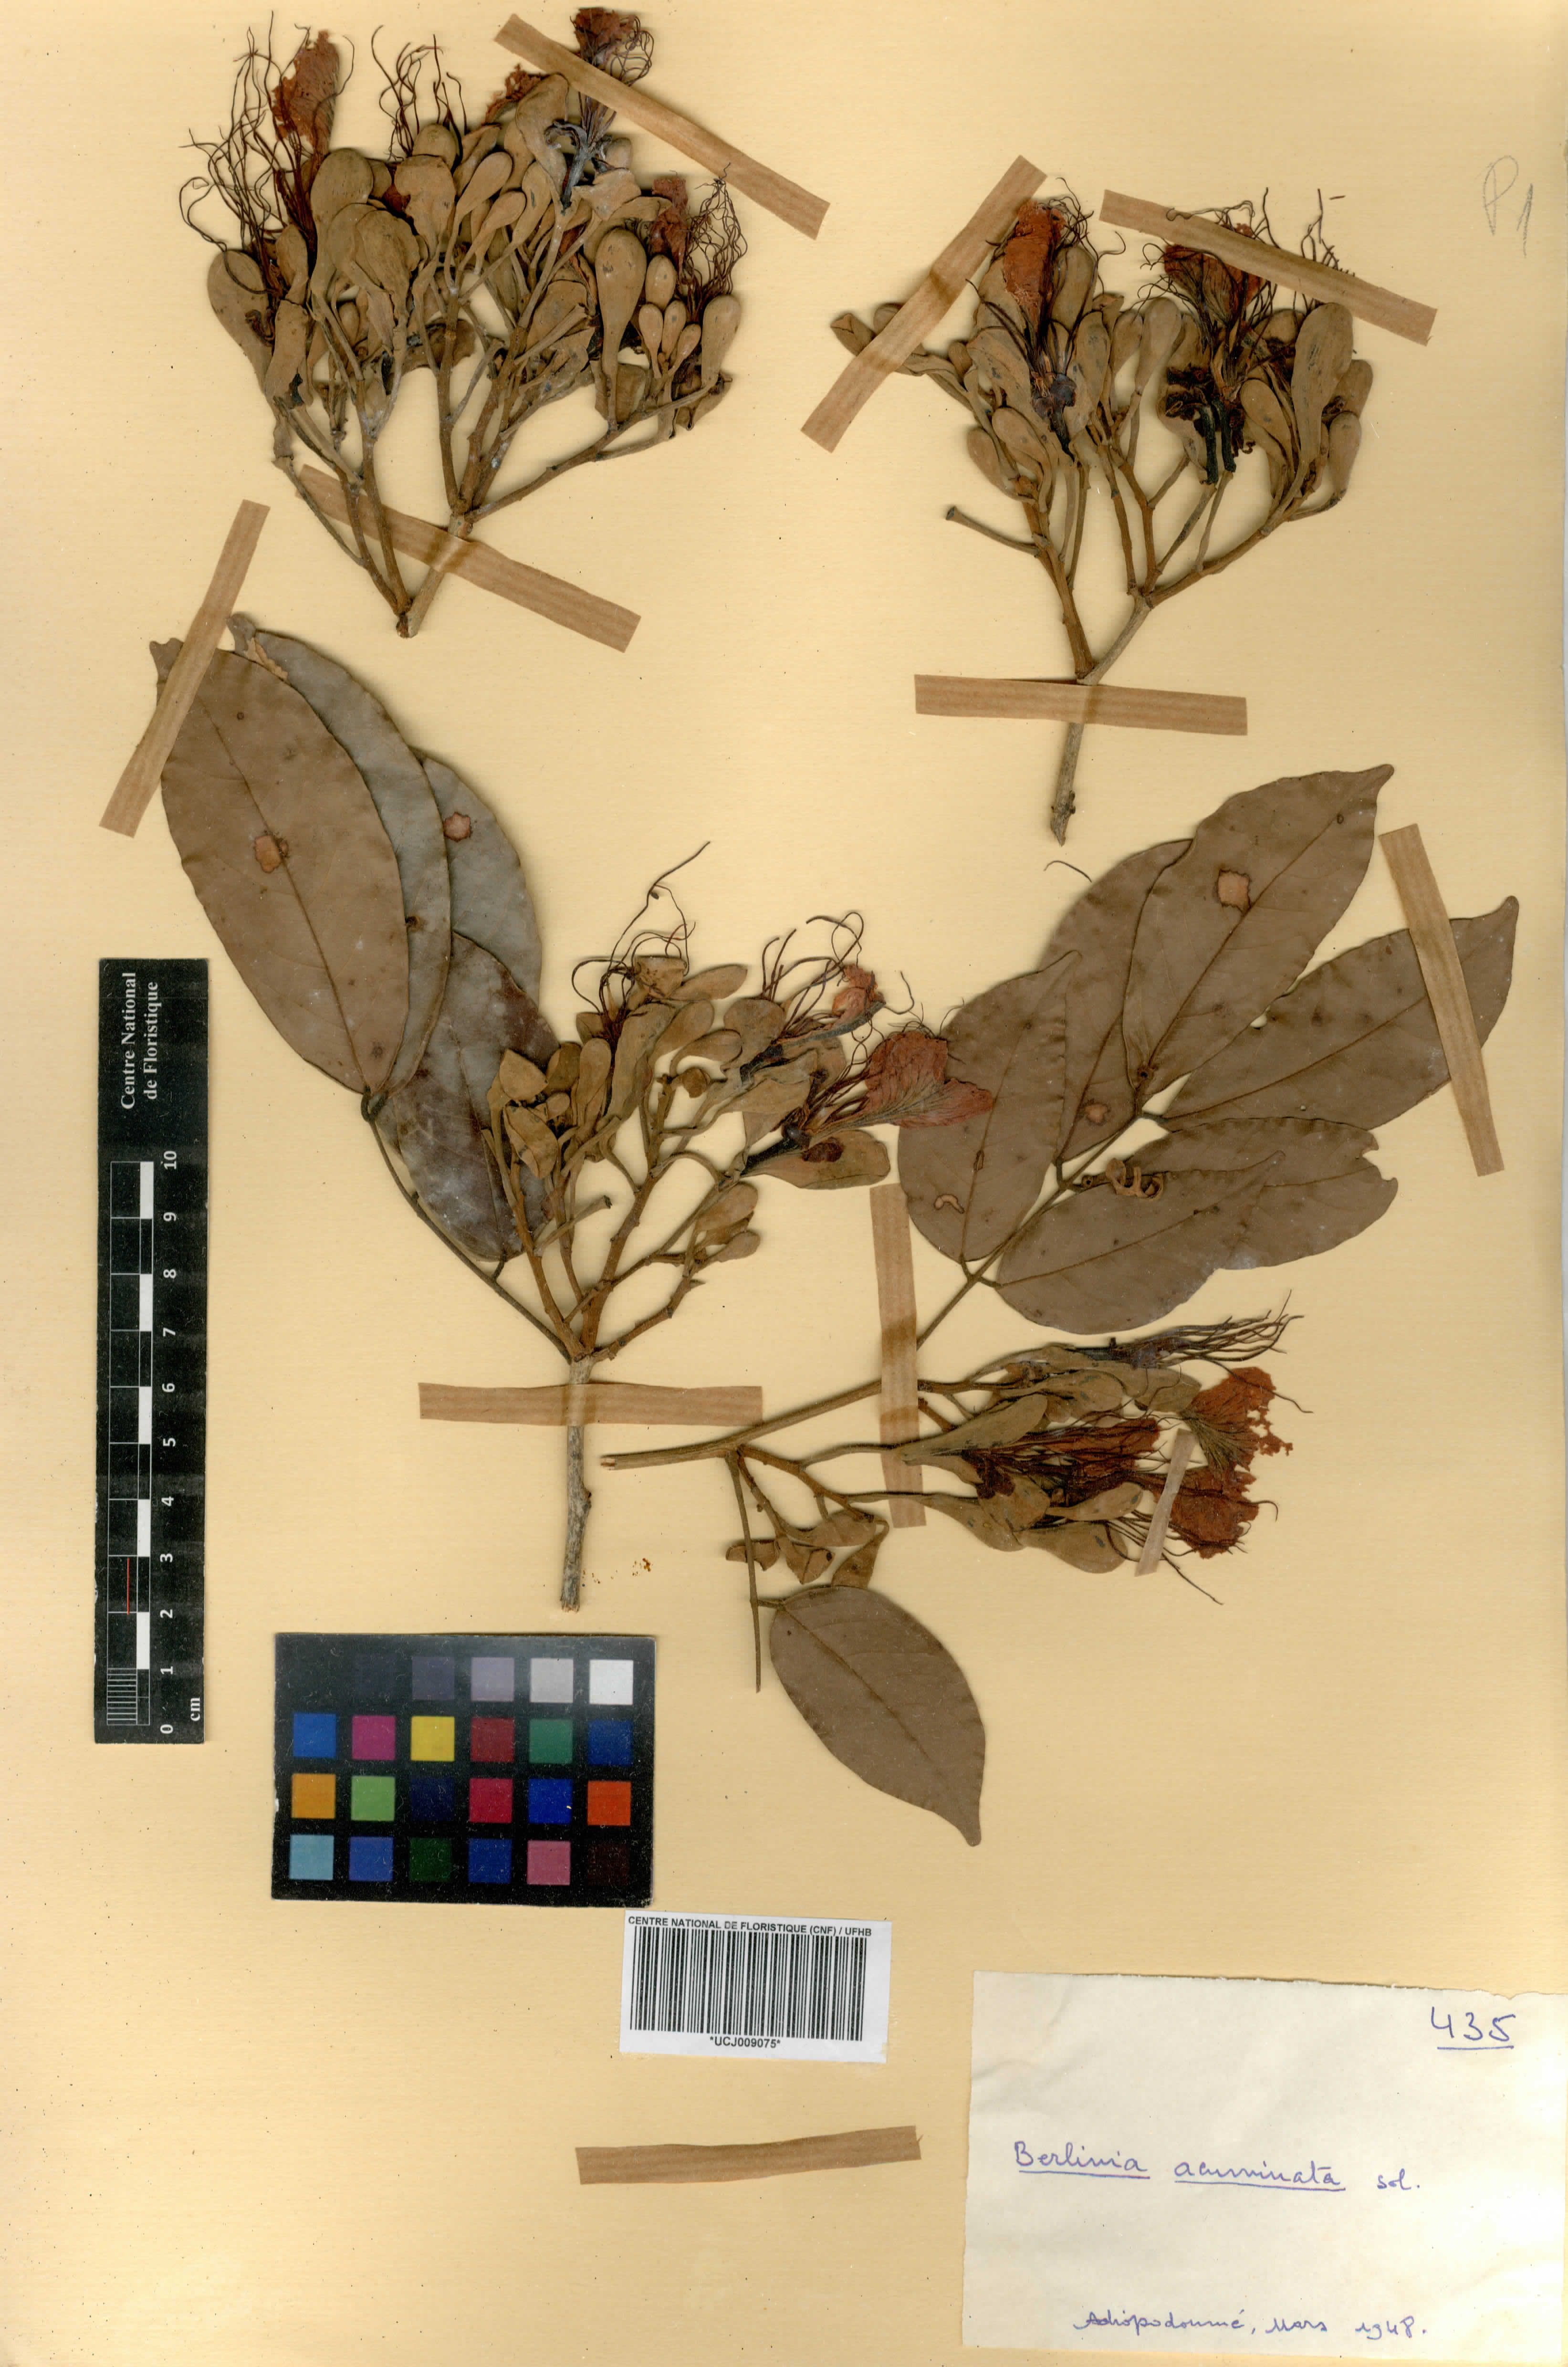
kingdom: Plantae
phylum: Tracheophyta
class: Magnoliopsida
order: Fabales
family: Fabaceae
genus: Berlinia
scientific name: Berlinia grandiflora
